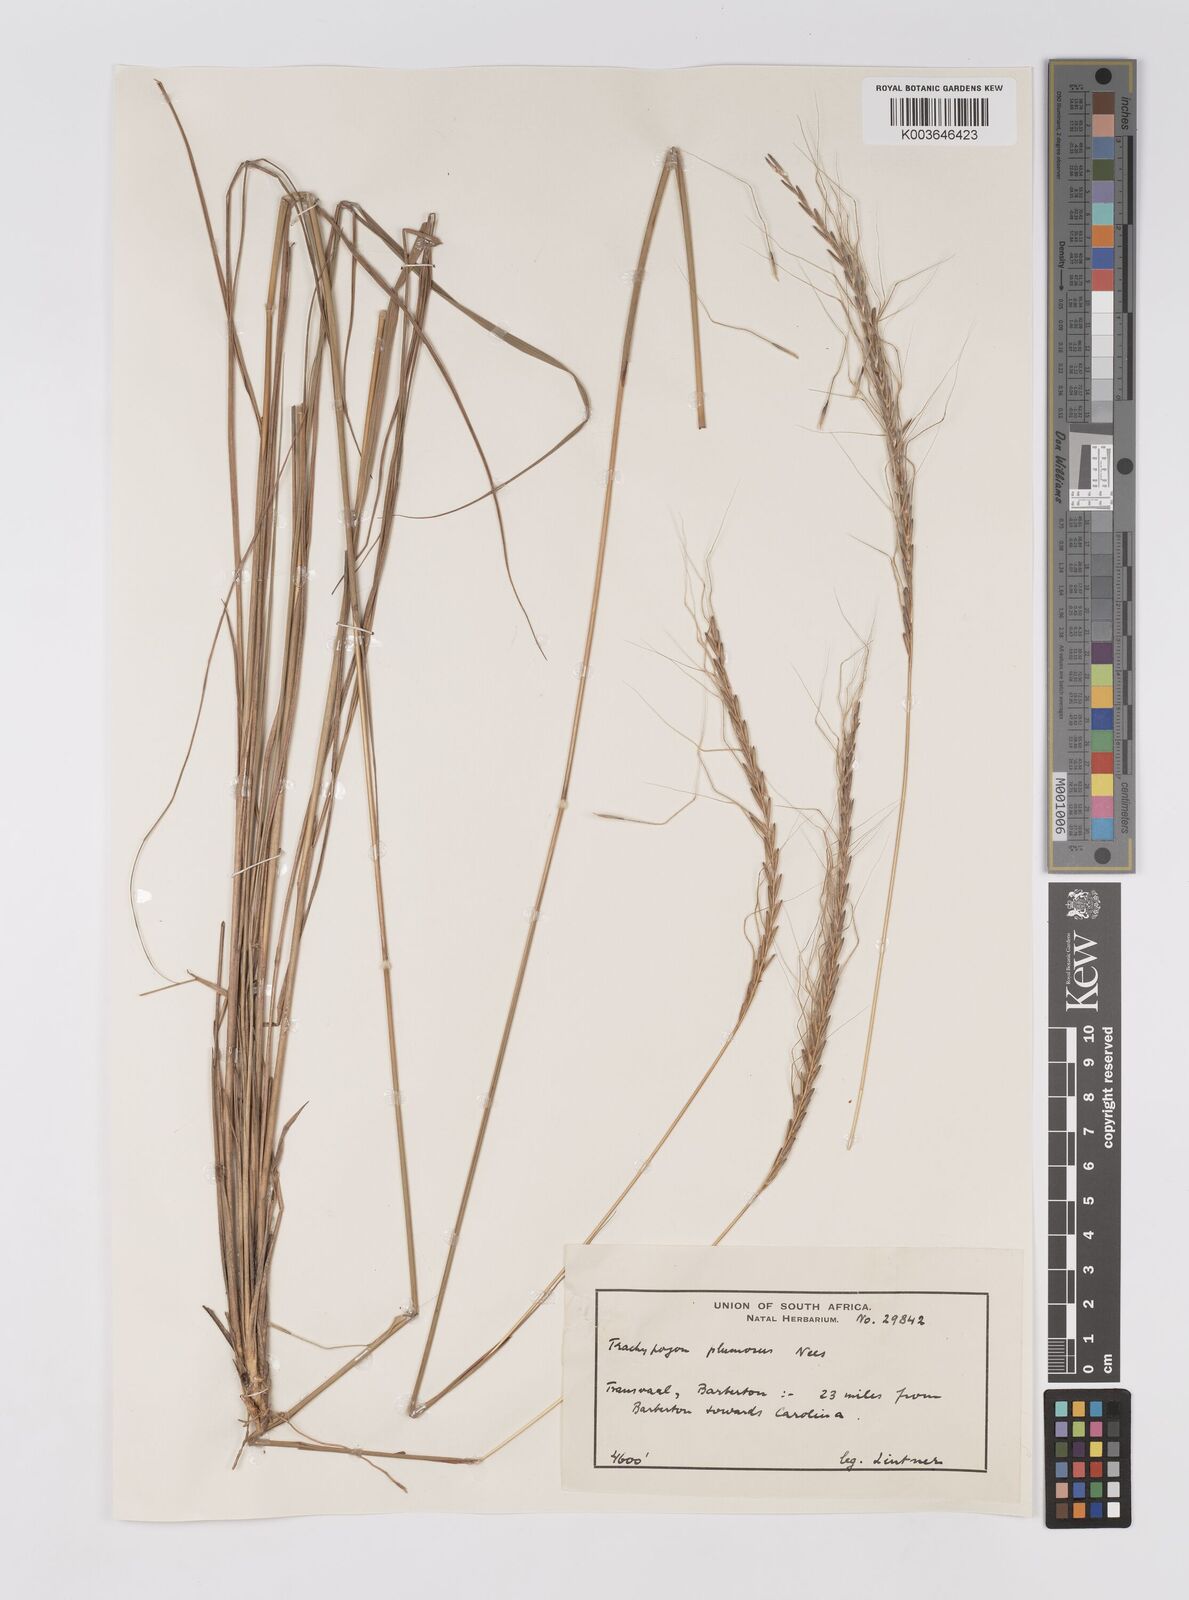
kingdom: Plantae
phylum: Tracheophyta
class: Liliopsida
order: Poales
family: Poaceae
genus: Trachypogon
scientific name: Trachypogon spicatus
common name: Crinkle-awn
